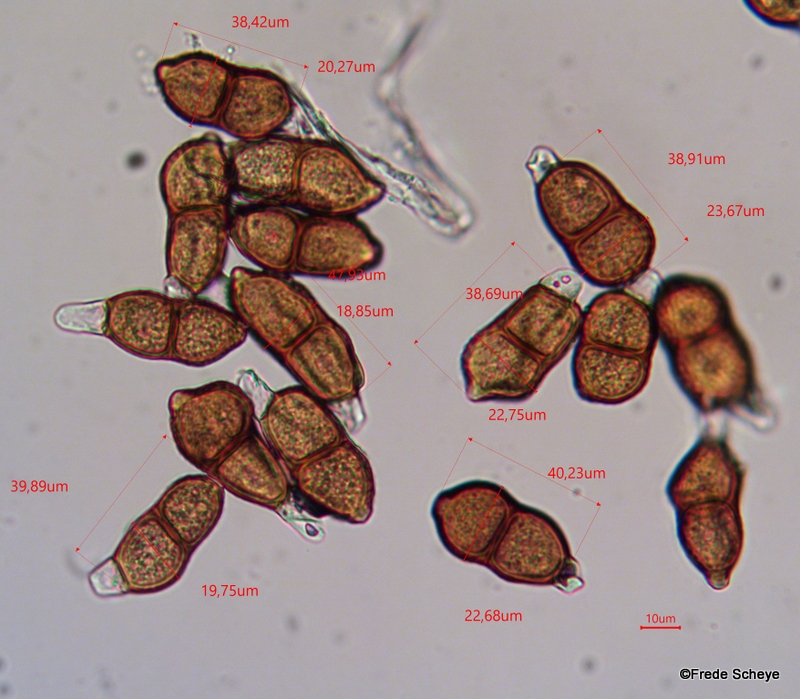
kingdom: Fungi
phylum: Basidiomycota
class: Pucciniomycetes
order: Pucciniales
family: Pucciniaceae
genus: Puccinia
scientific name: Puccinia singularis
